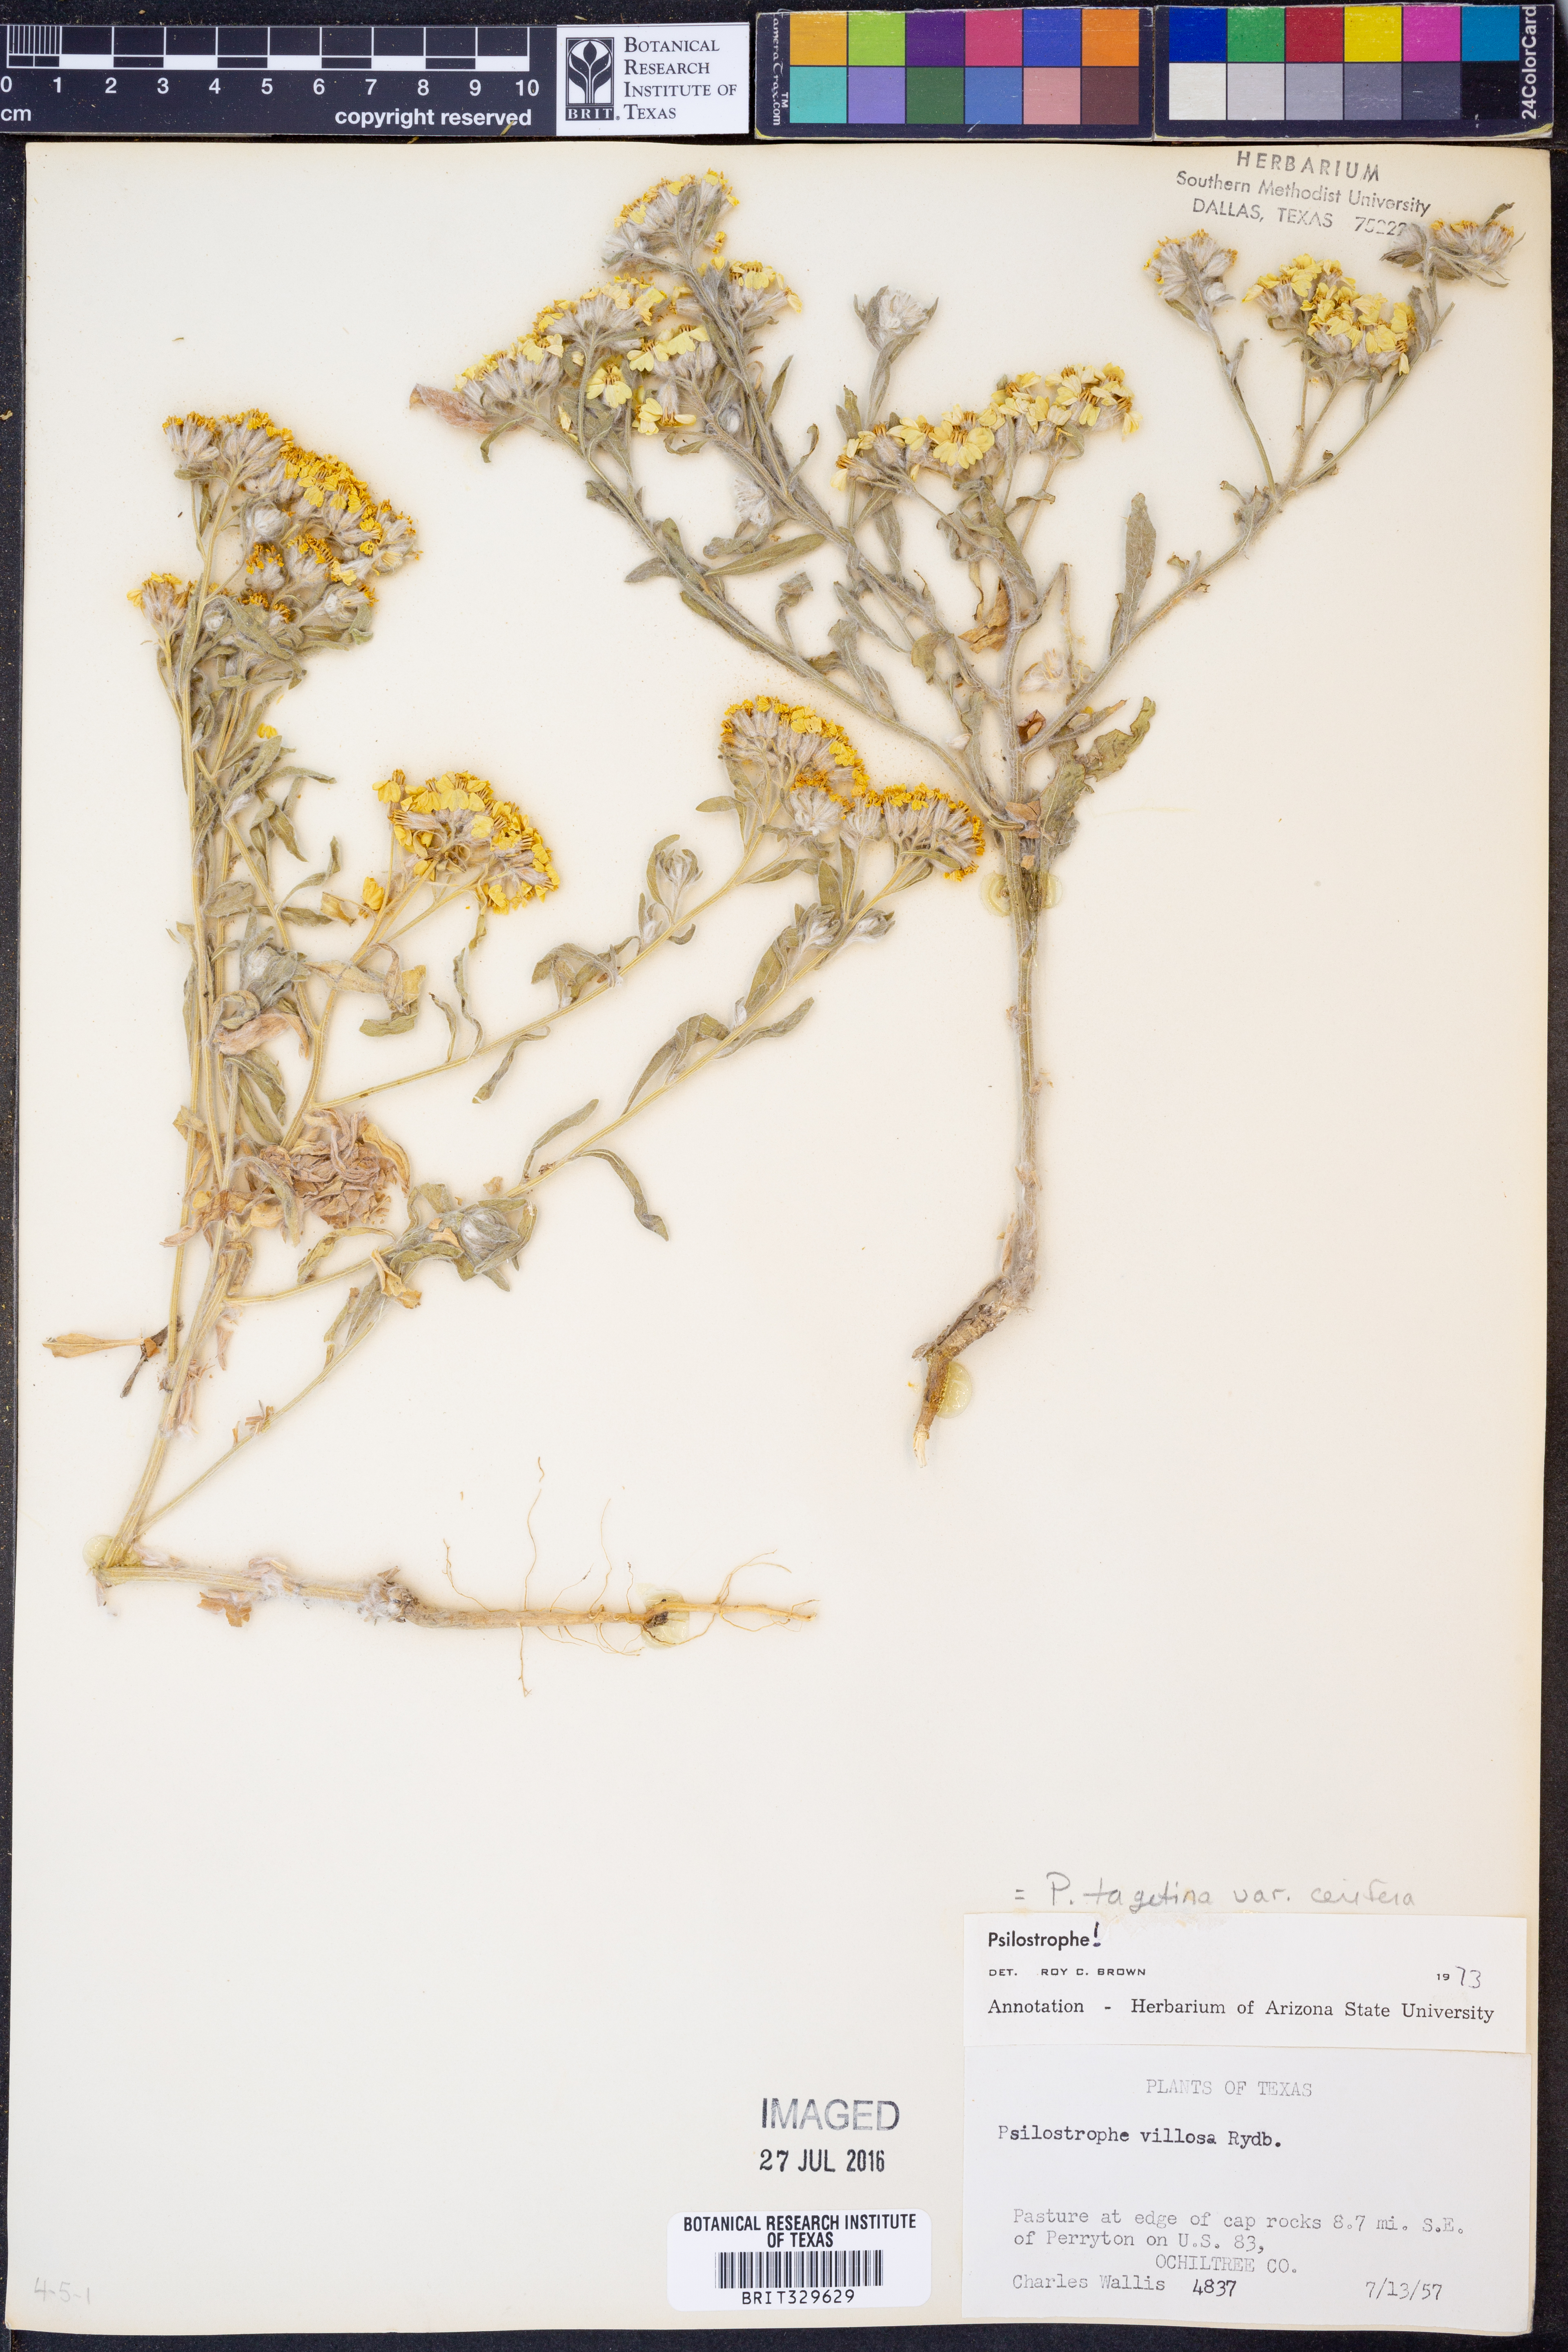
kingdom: Plantae
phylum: Tracheophyta
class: Magnoliopsida
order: Asterales
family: Asteraceae
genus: Psilostrophe
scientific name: Psilostrophe villosa
